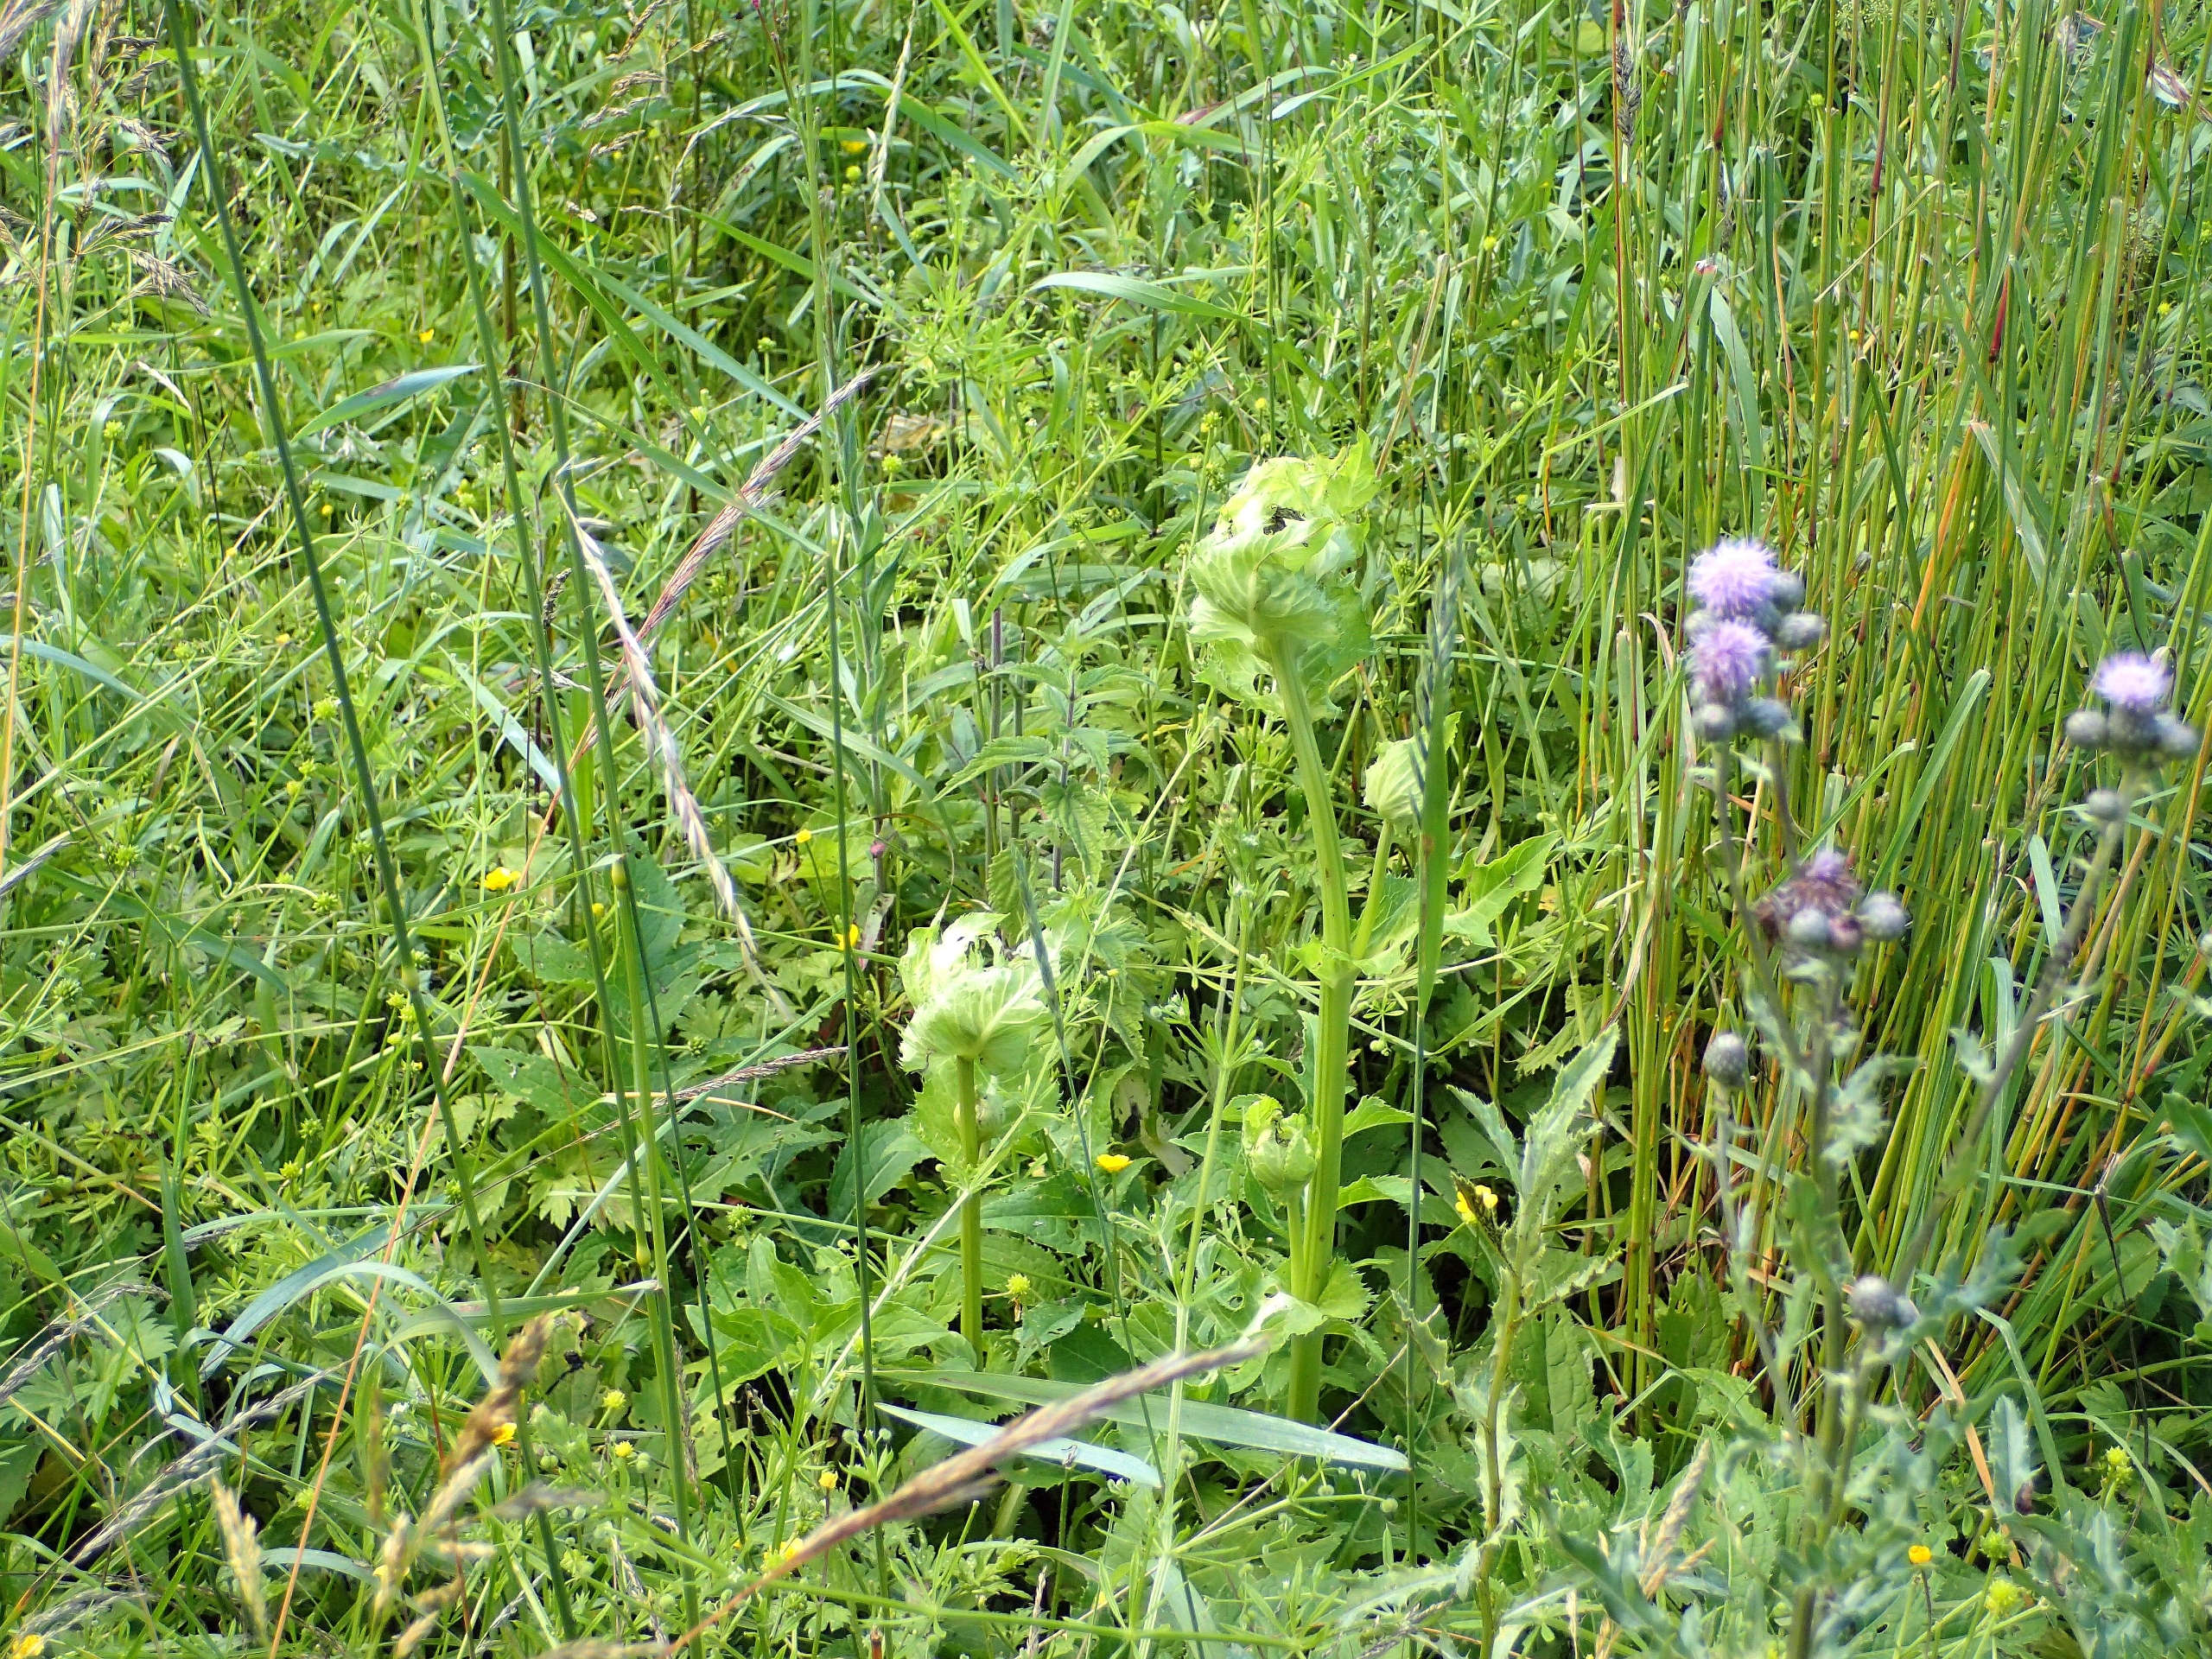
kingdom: Plantae
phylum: Tracheophyta
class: Magnoliopsida
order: Asterales
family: Asteraceae
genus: Cirsium
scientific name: Cirsium oleraceum
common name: Kål-tidsel
